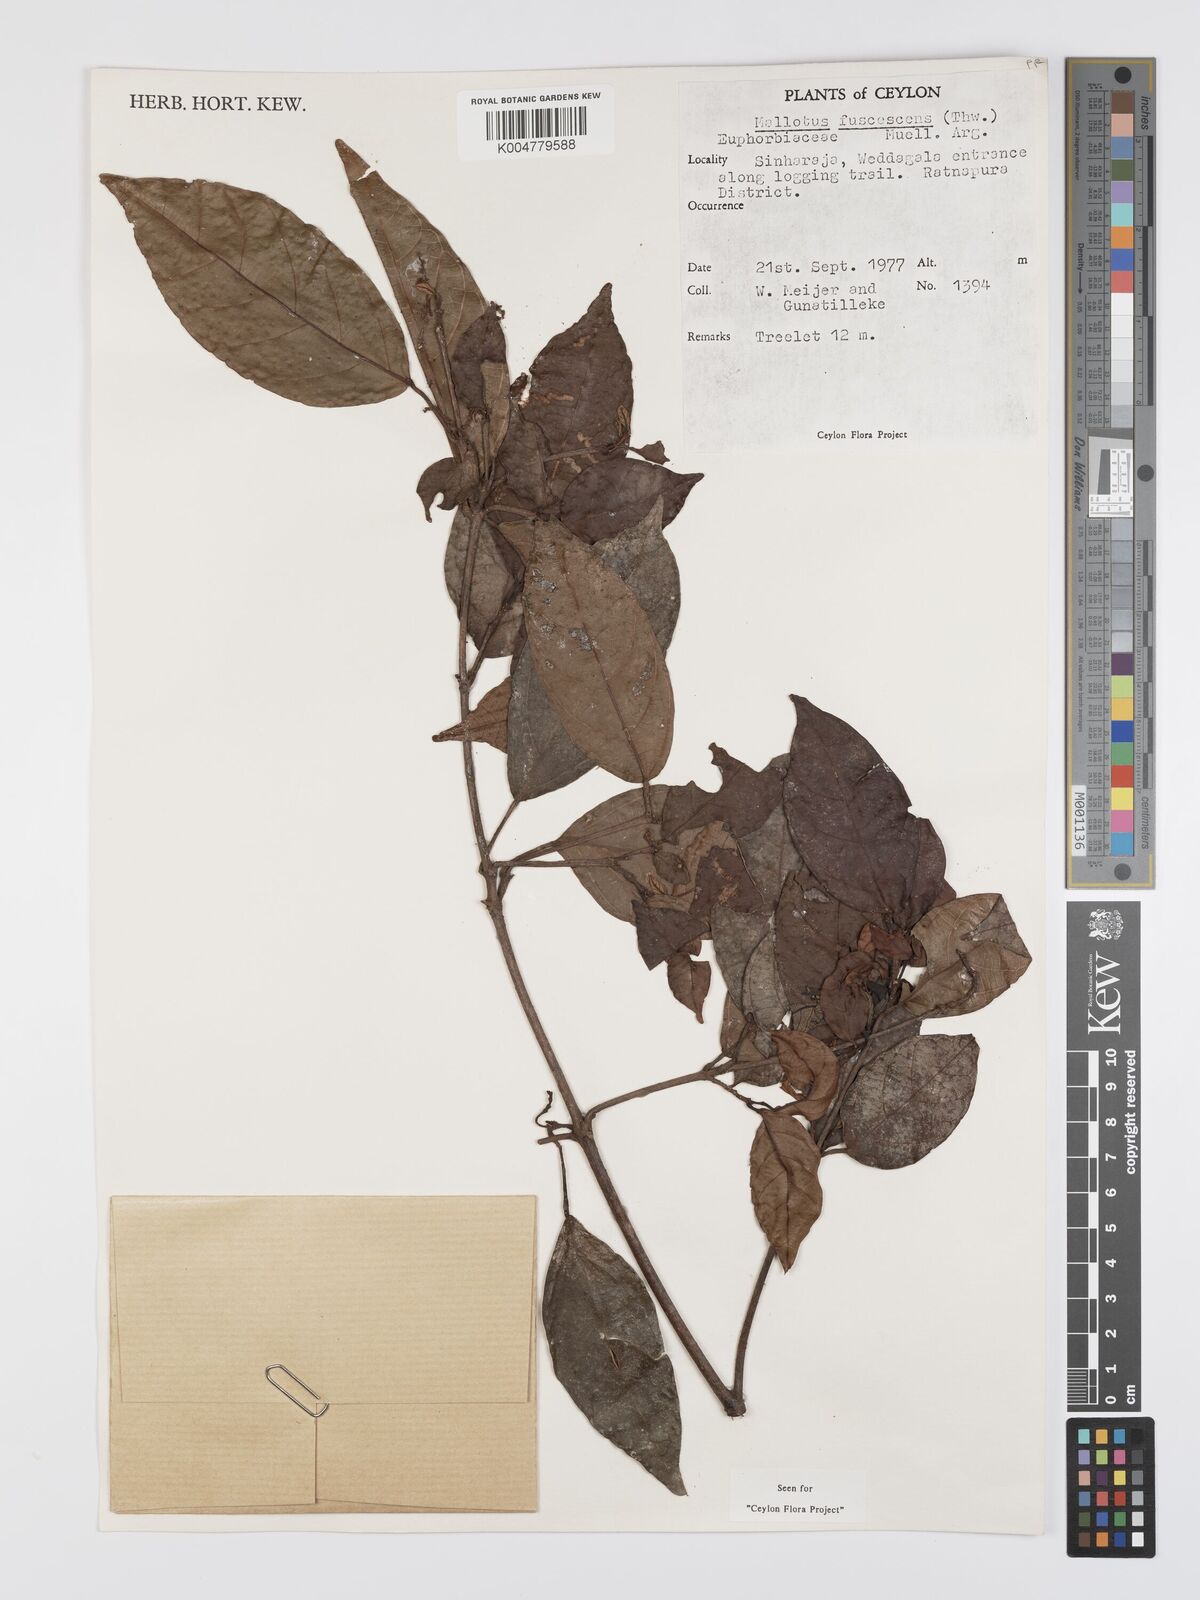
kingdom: Plantae
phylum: Tracheophyta
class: Magnoliopsida
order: Malpighiales
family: Euphorbiaceae
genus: Mallotus
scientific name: Mallotus fuscescens
